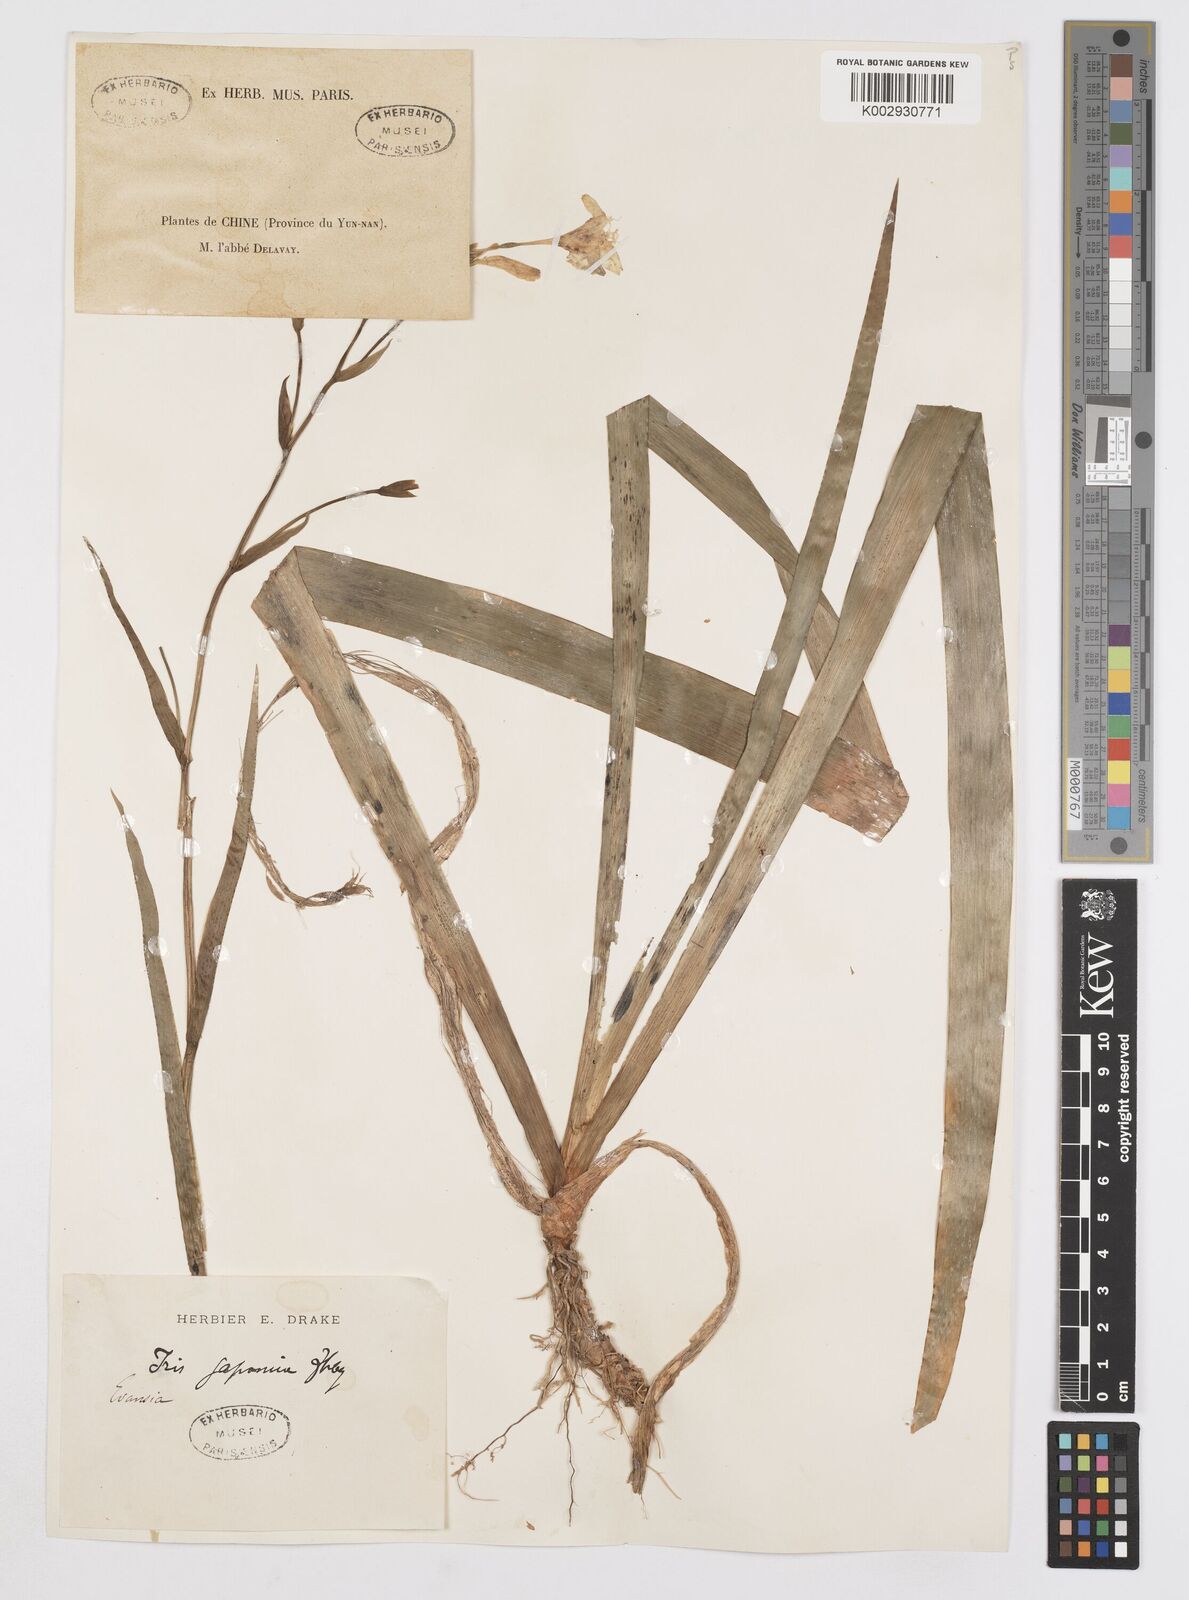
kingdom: Plantae
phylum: Tracheophyta
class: Liliopsida
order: Asparagales
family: Iridaceae
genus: Iris
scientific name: Iris japonica
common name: Butterfly-flower
